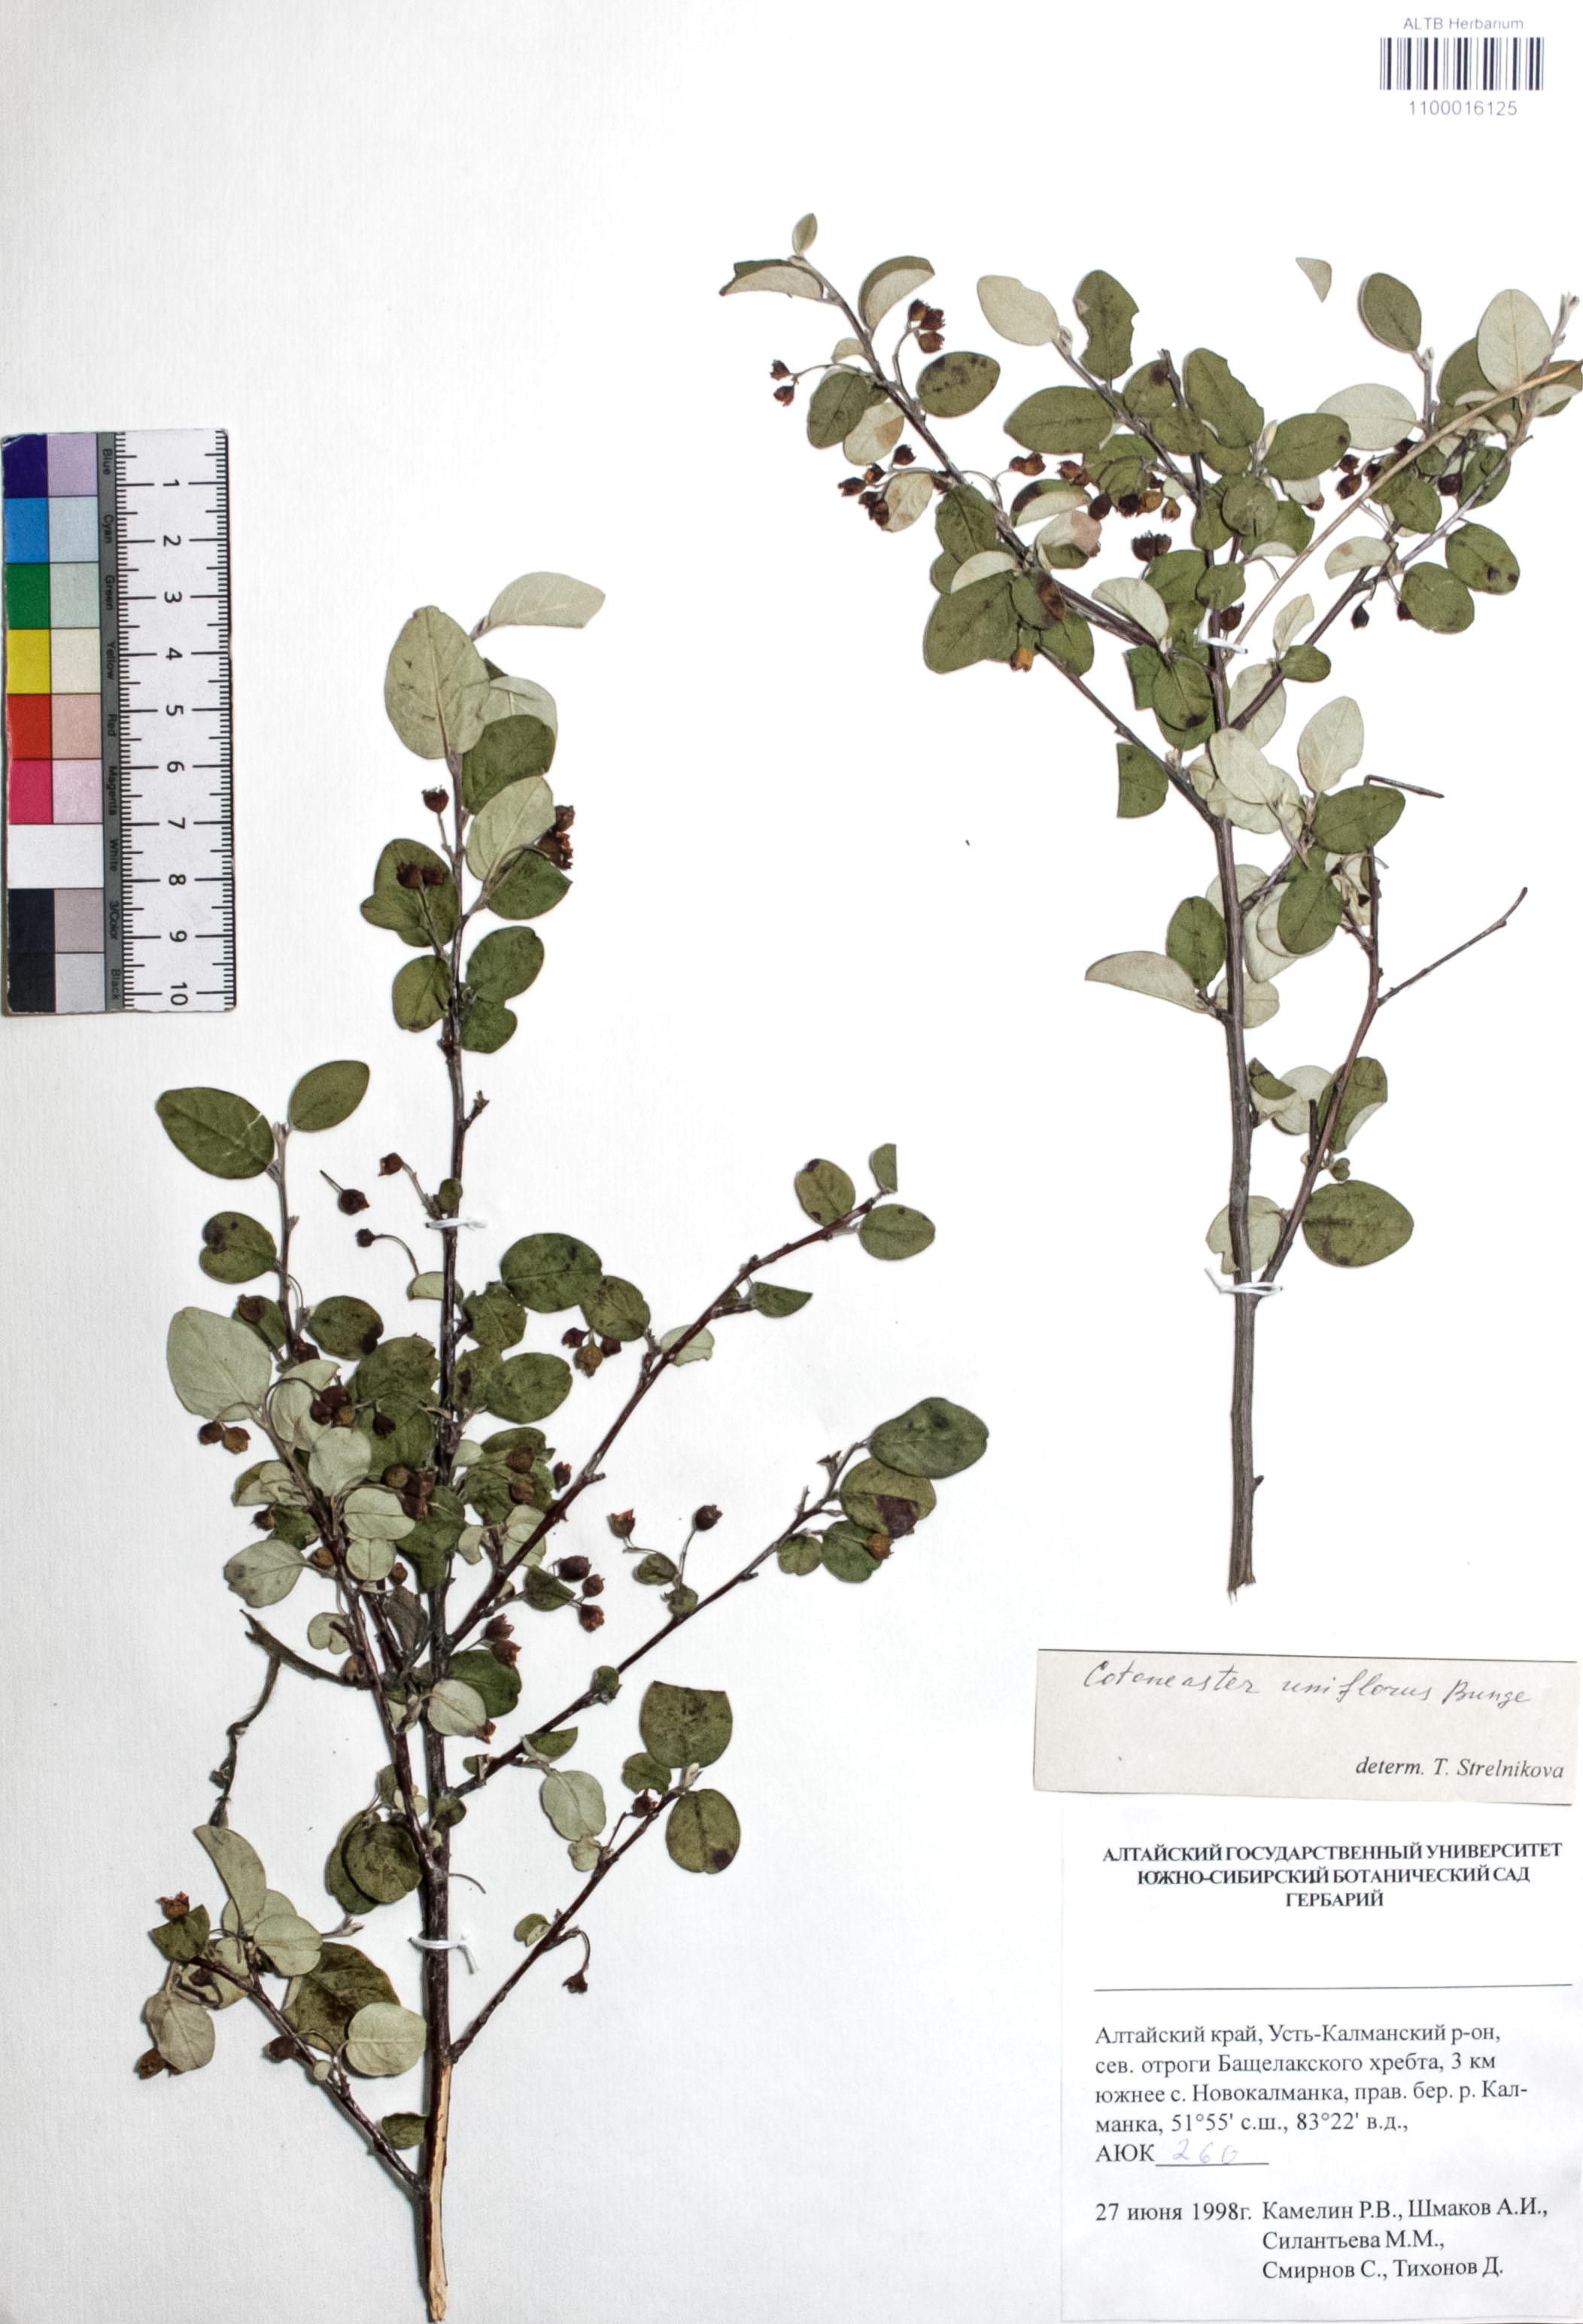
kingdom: Plantae
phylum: Tracheophyta
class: Magnoliopsida
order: Rosales
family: Rosaceae
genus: Cotoneaster
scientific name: Cotoneaster uniflorus
